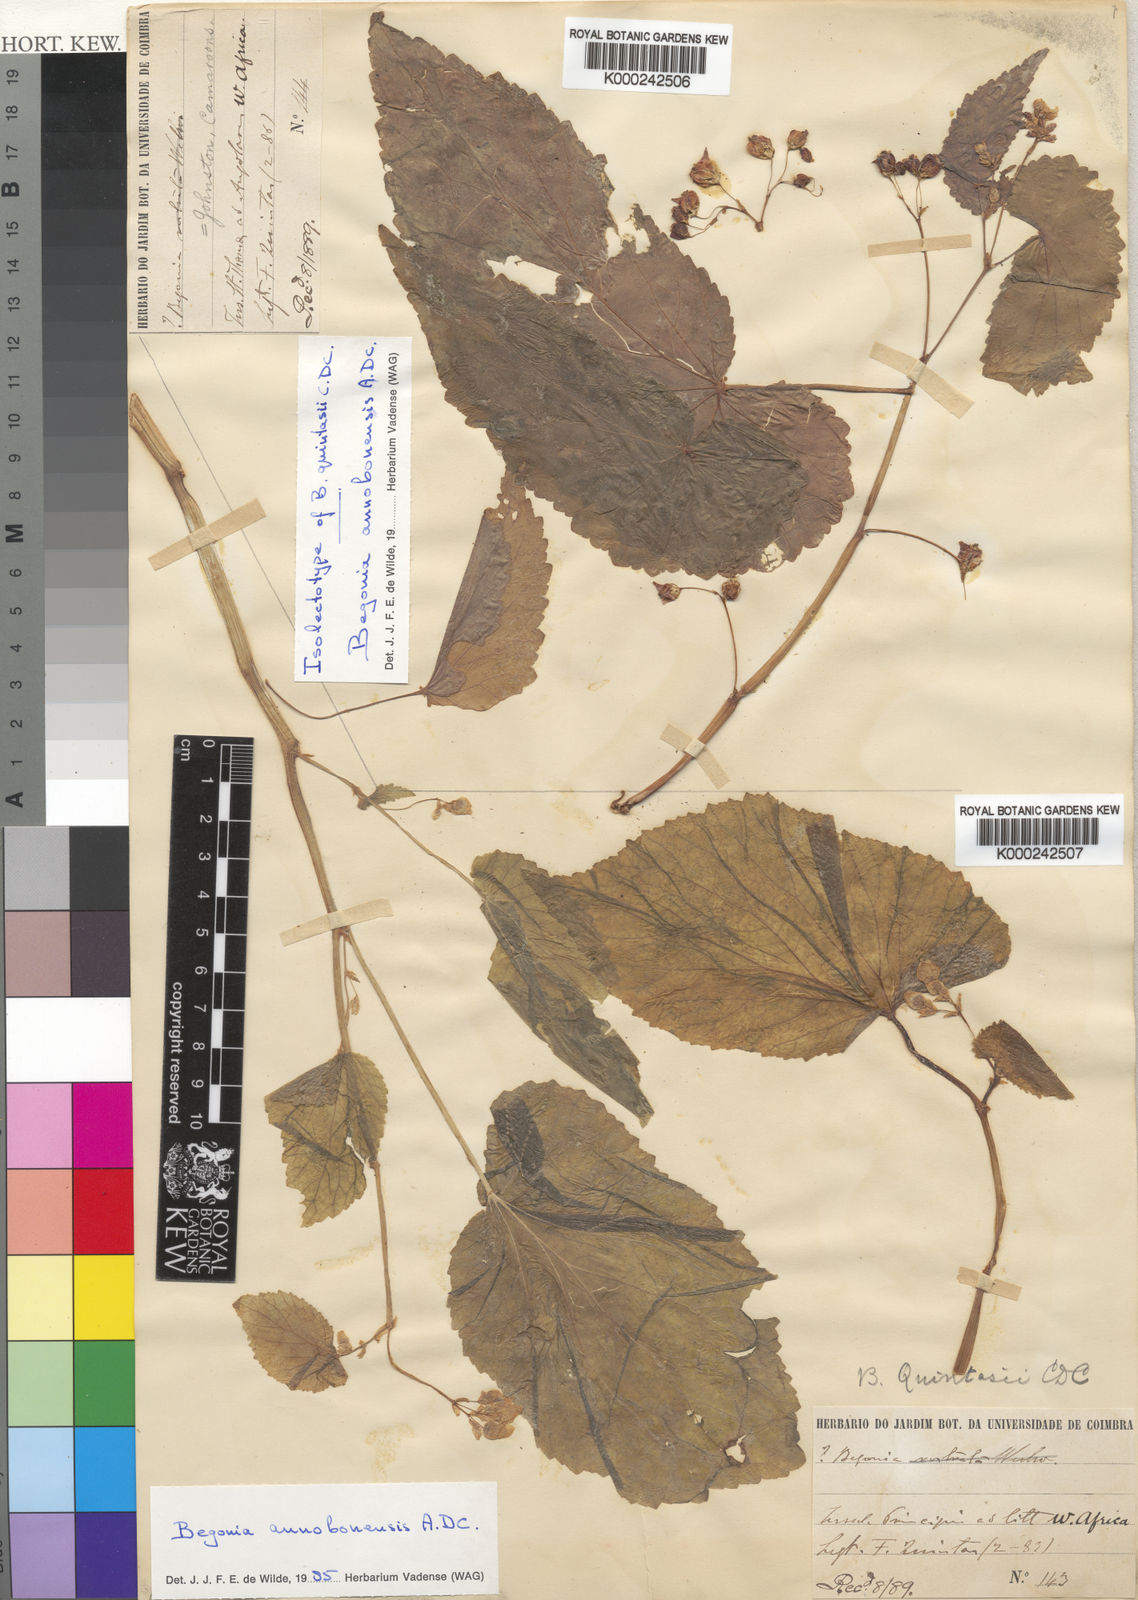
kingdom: Plantae
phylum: Tracheophyta
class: Magnoliopsida
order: Cucurbitales
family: Begoniaceae
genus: Begonia
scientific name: Begonia annobonensis
